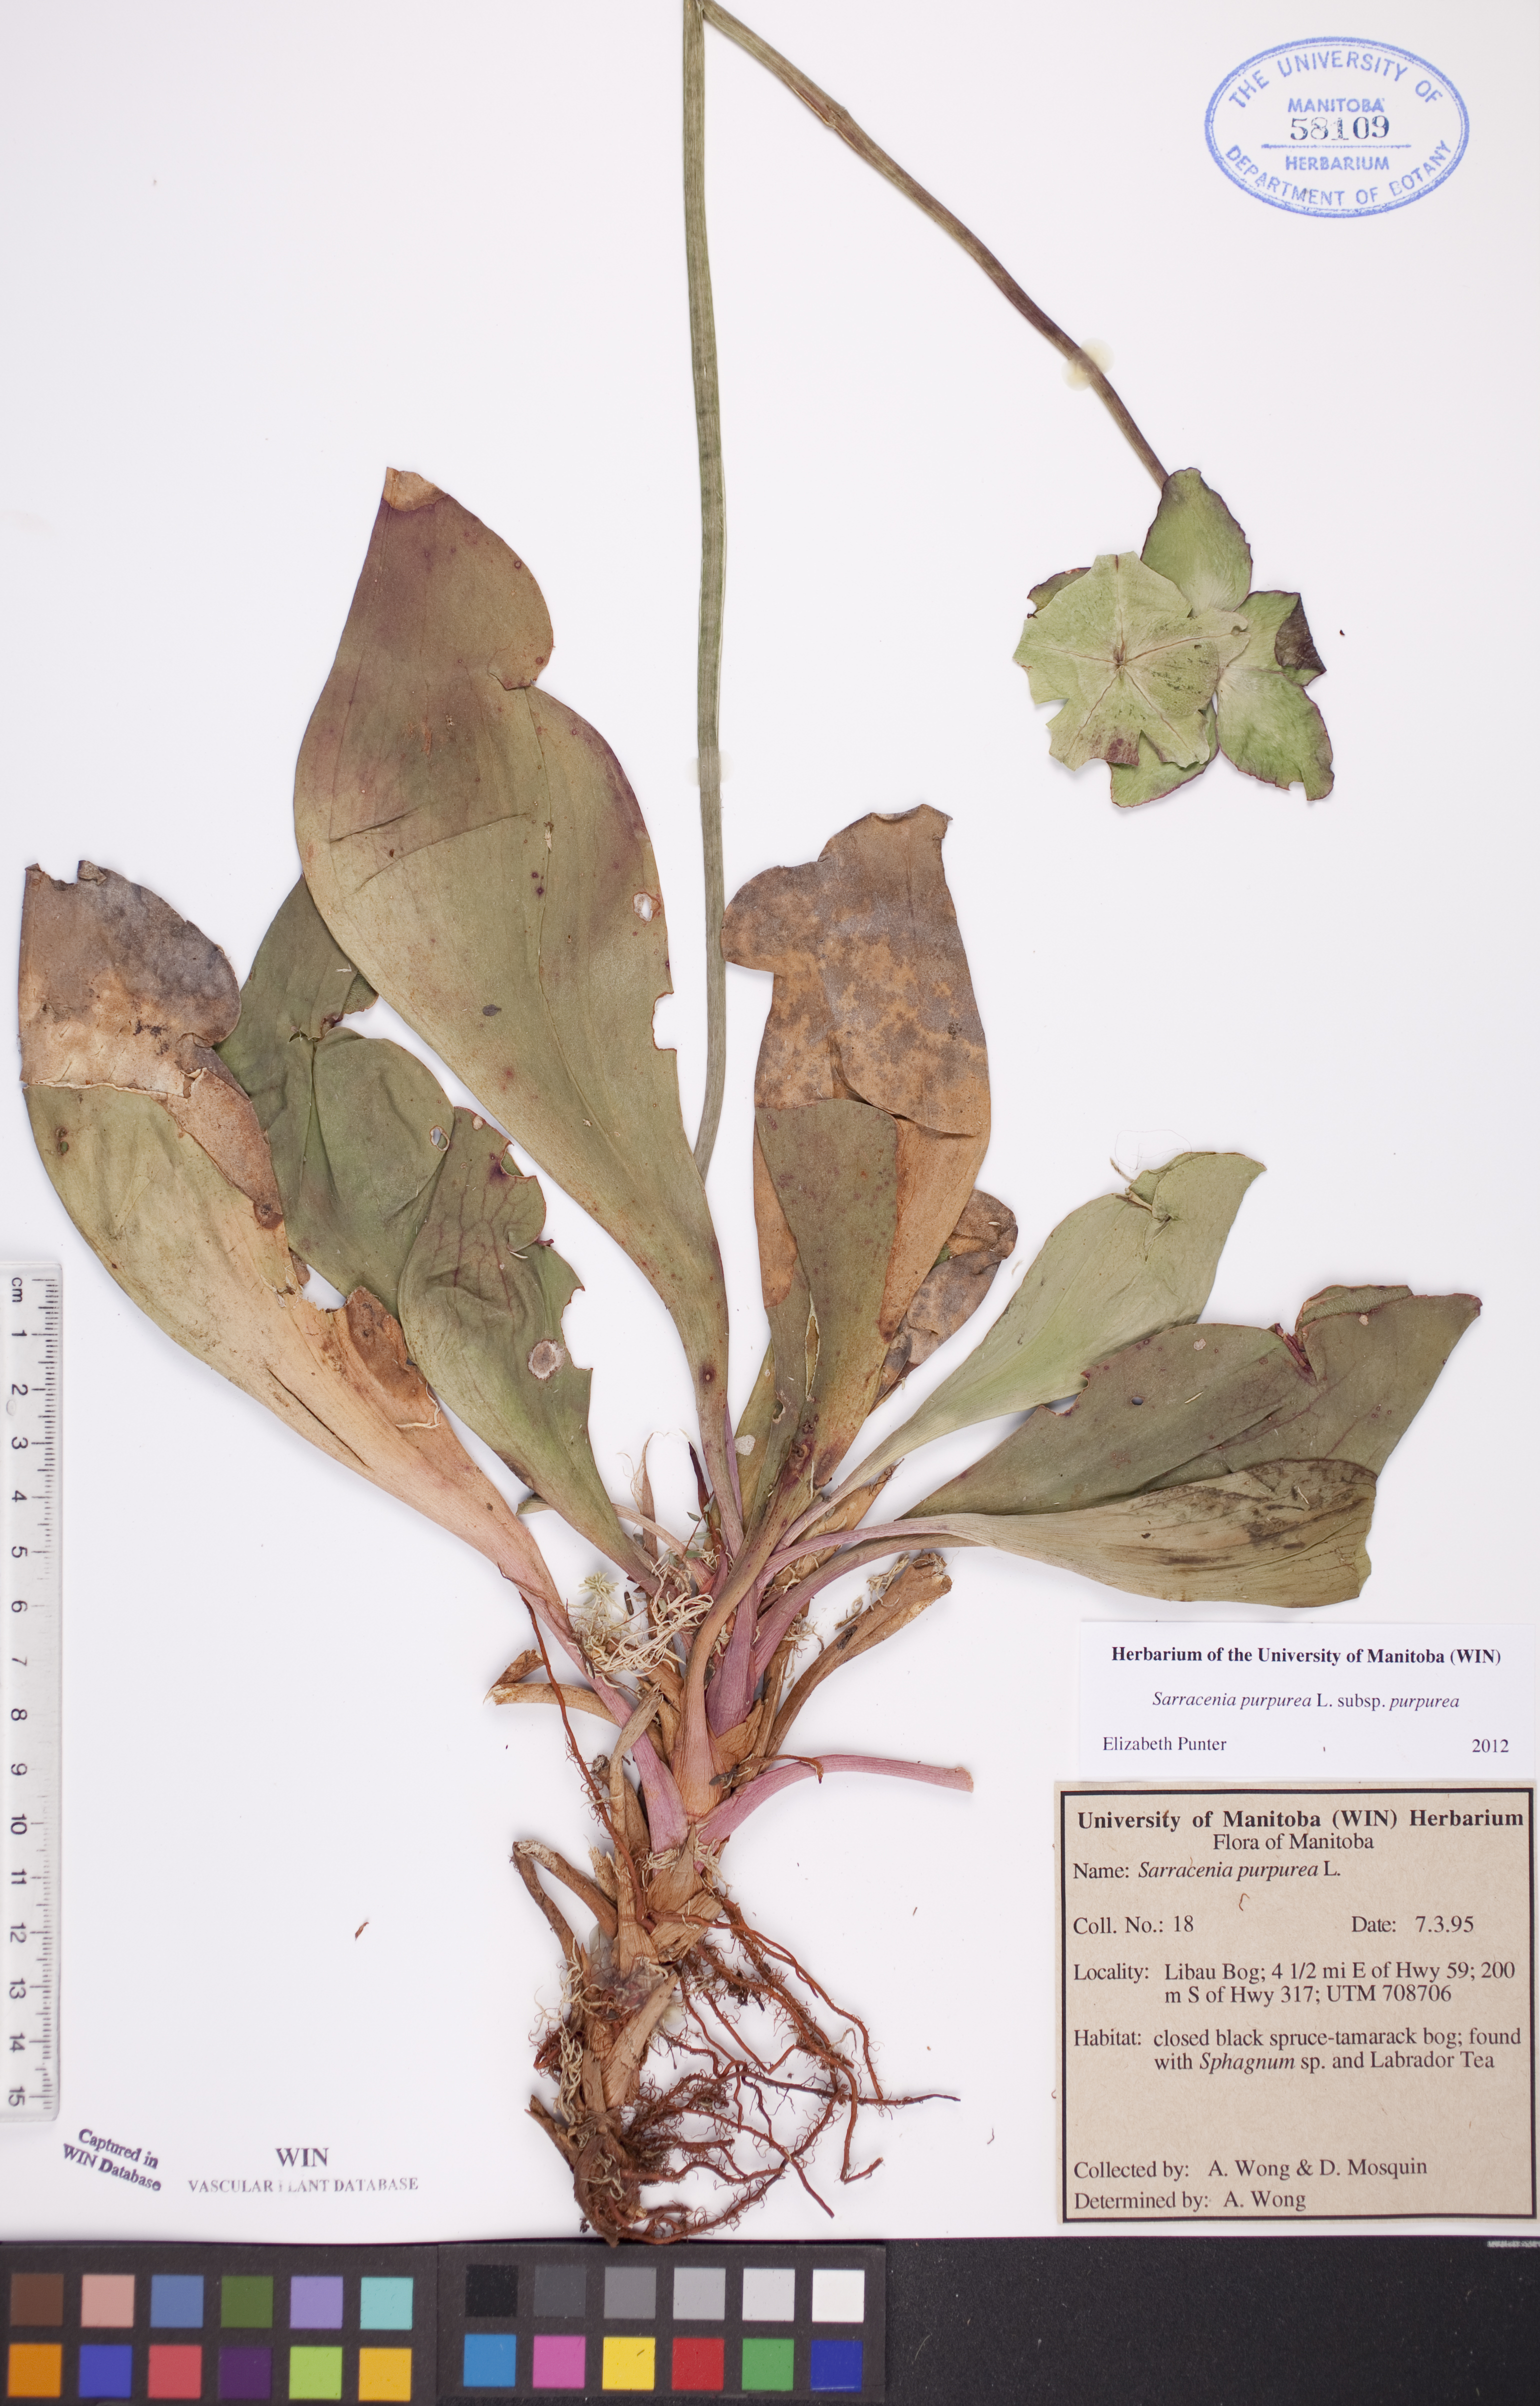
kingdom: Plantae
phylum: Tracheophyta
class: Magnoliopsida
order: Ericales
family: Sarraceniaceae
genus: Sarracenia
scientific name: Sarracenia purpurea
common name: Pitcherplant
